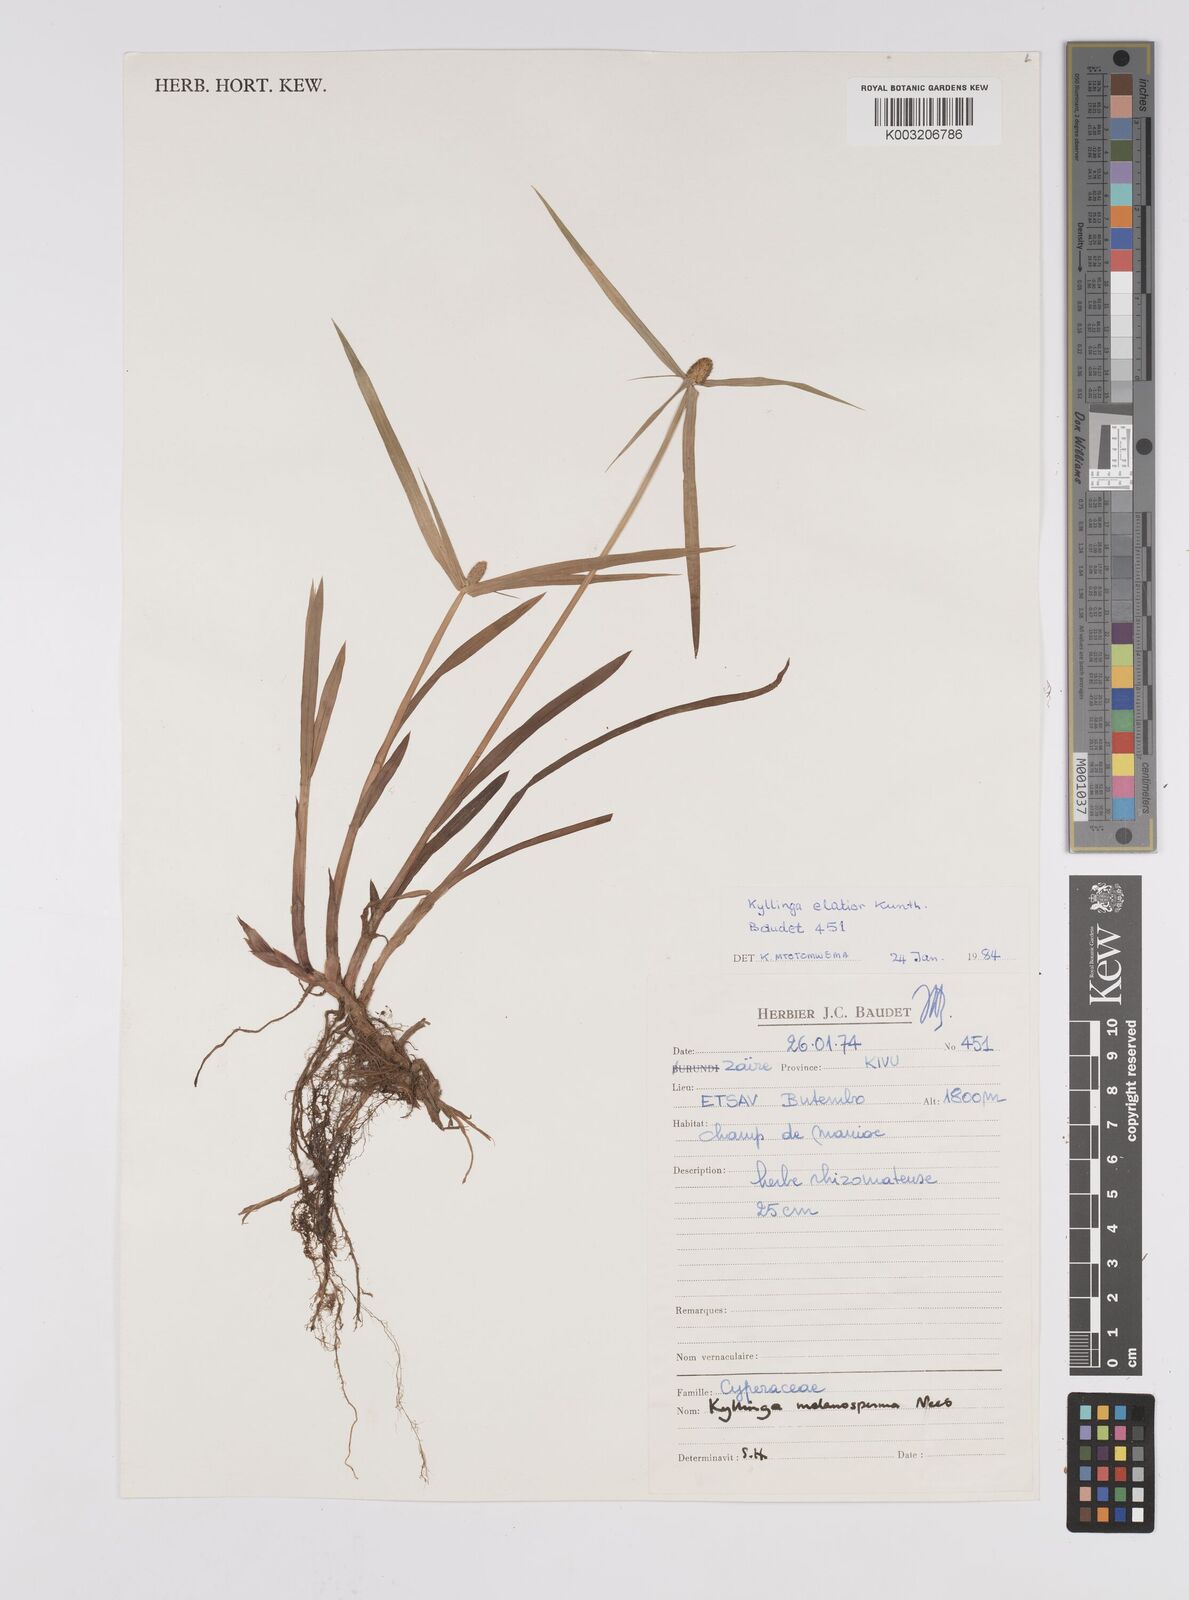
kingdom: Plantae
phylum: Tracheophyta
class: Liliopsida
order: Poales
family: Cyperaceae
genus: Cyperus
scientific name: Cyperus melanospermus
